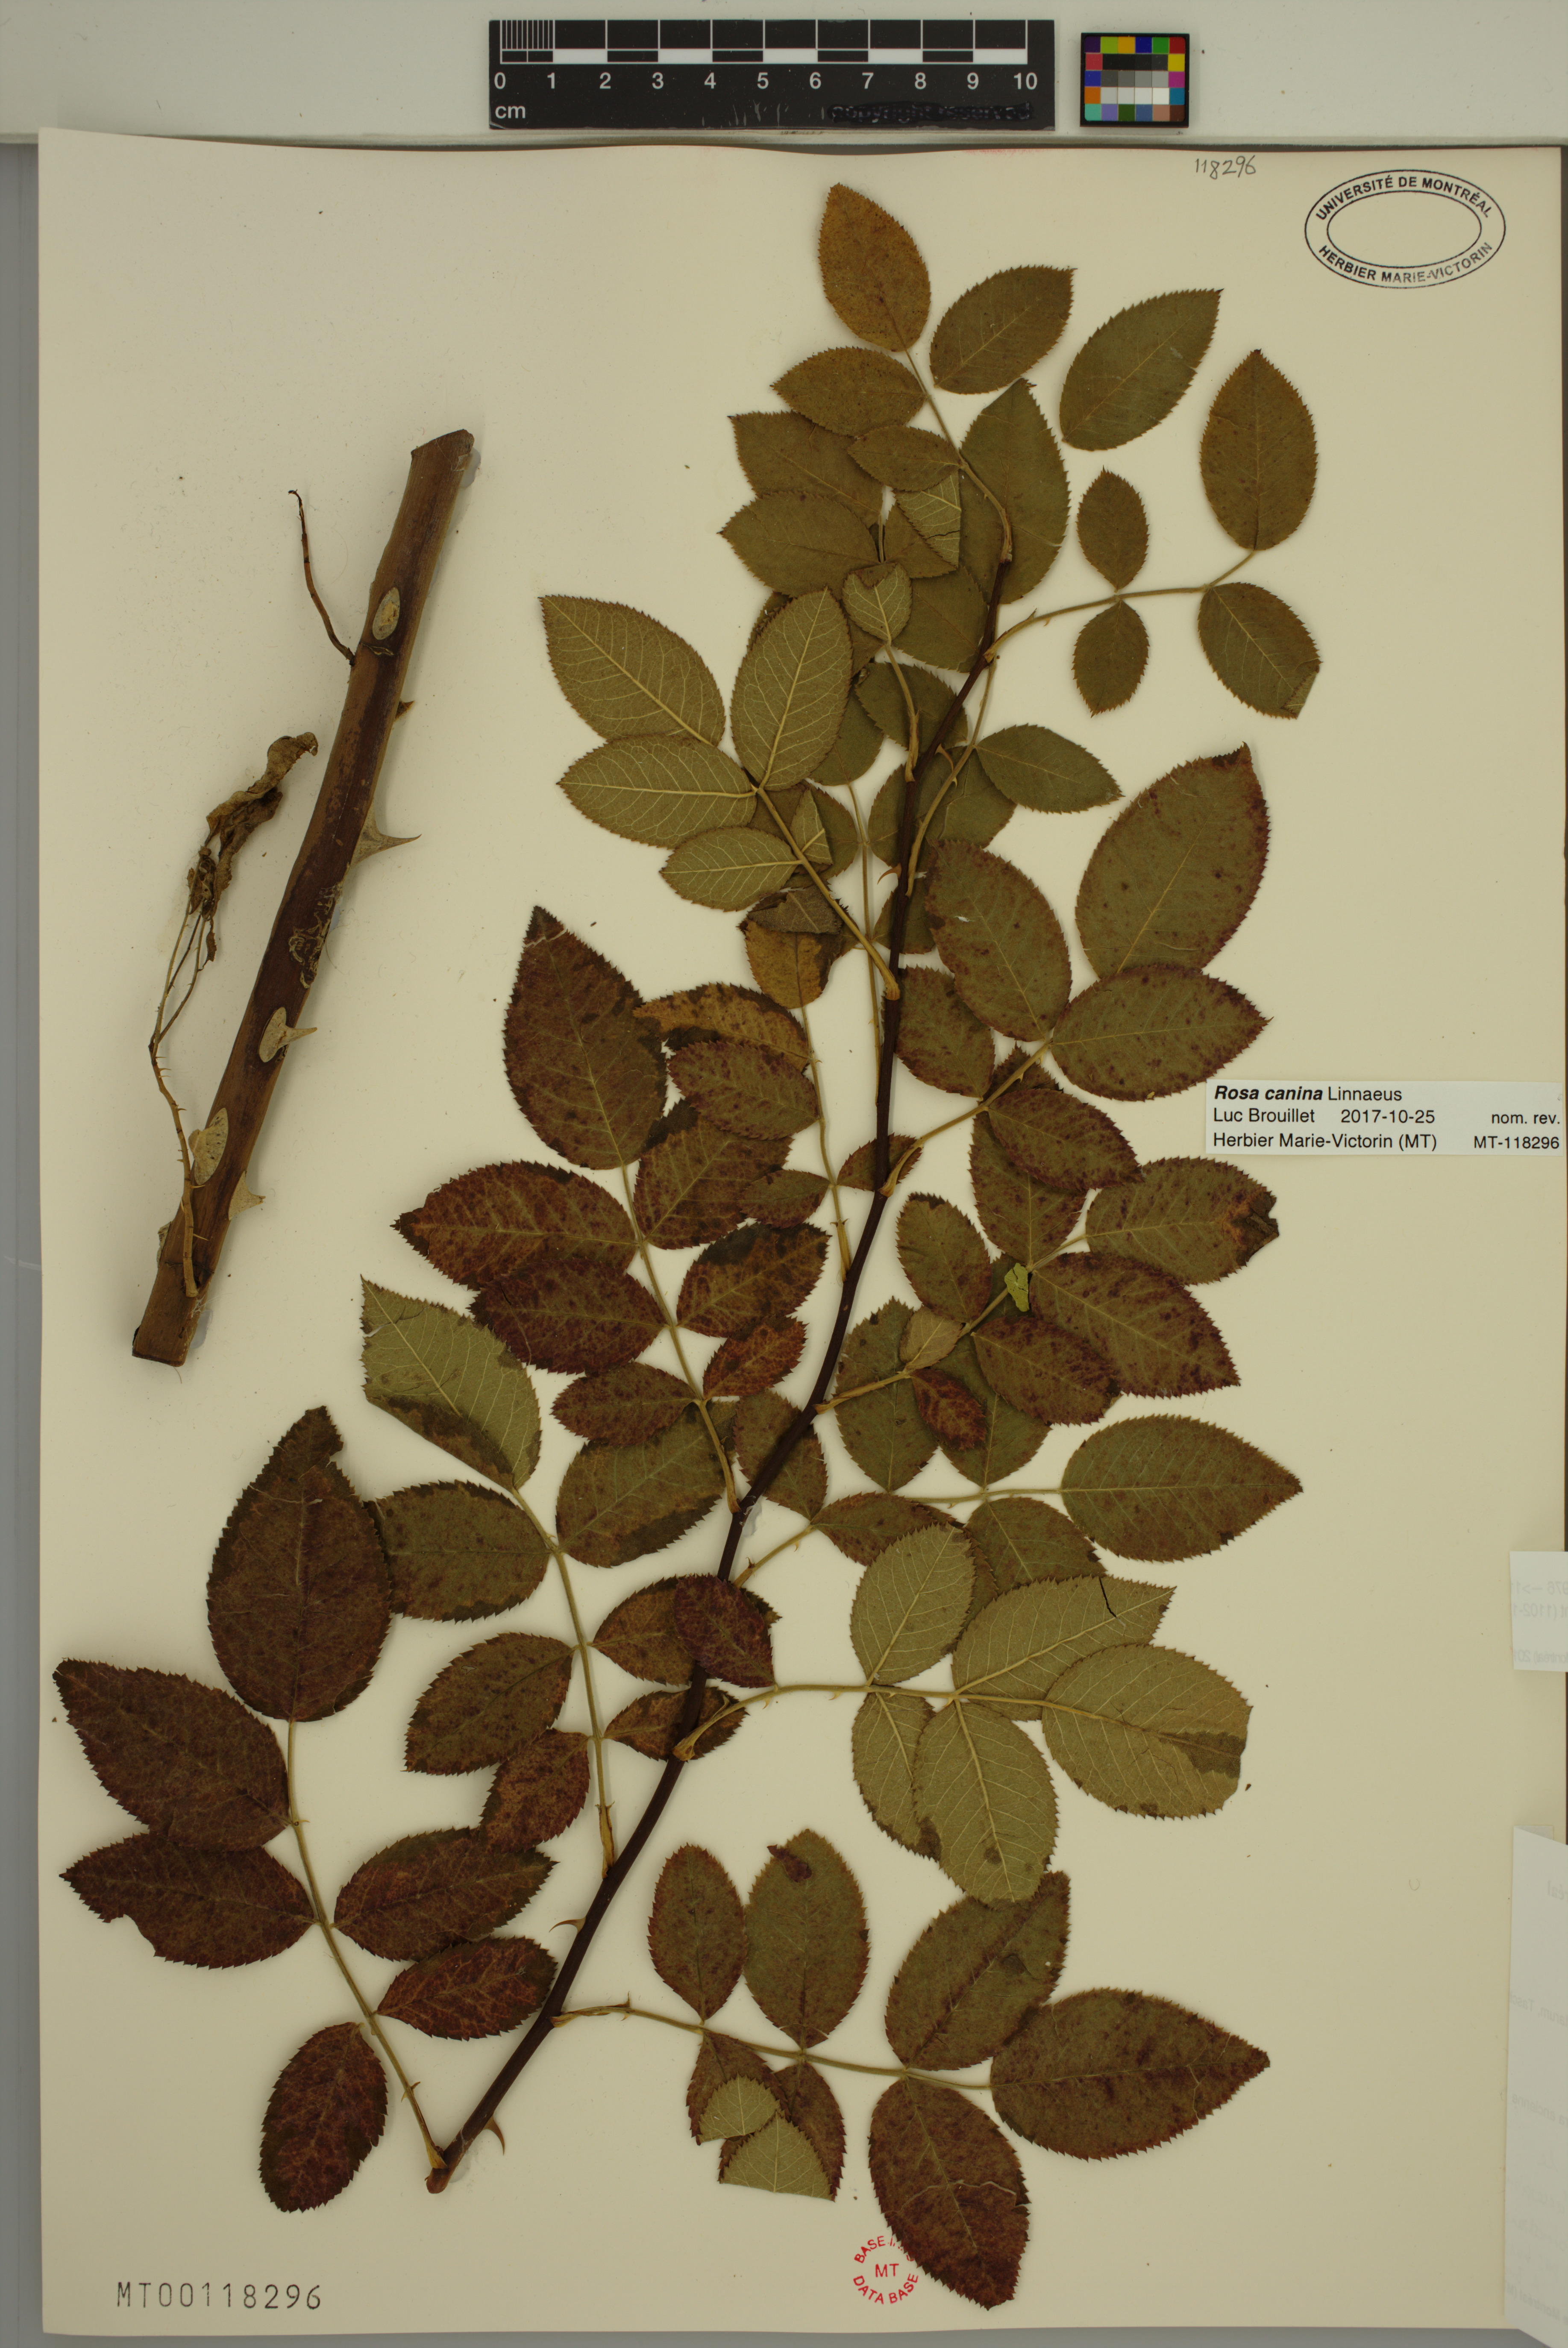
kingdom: Plantae
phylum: Tracheophyta
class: Magnoliopsida
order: Rosales
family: Rosaceae
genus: Rosa
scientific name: Rosa canina
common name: Dog rose
